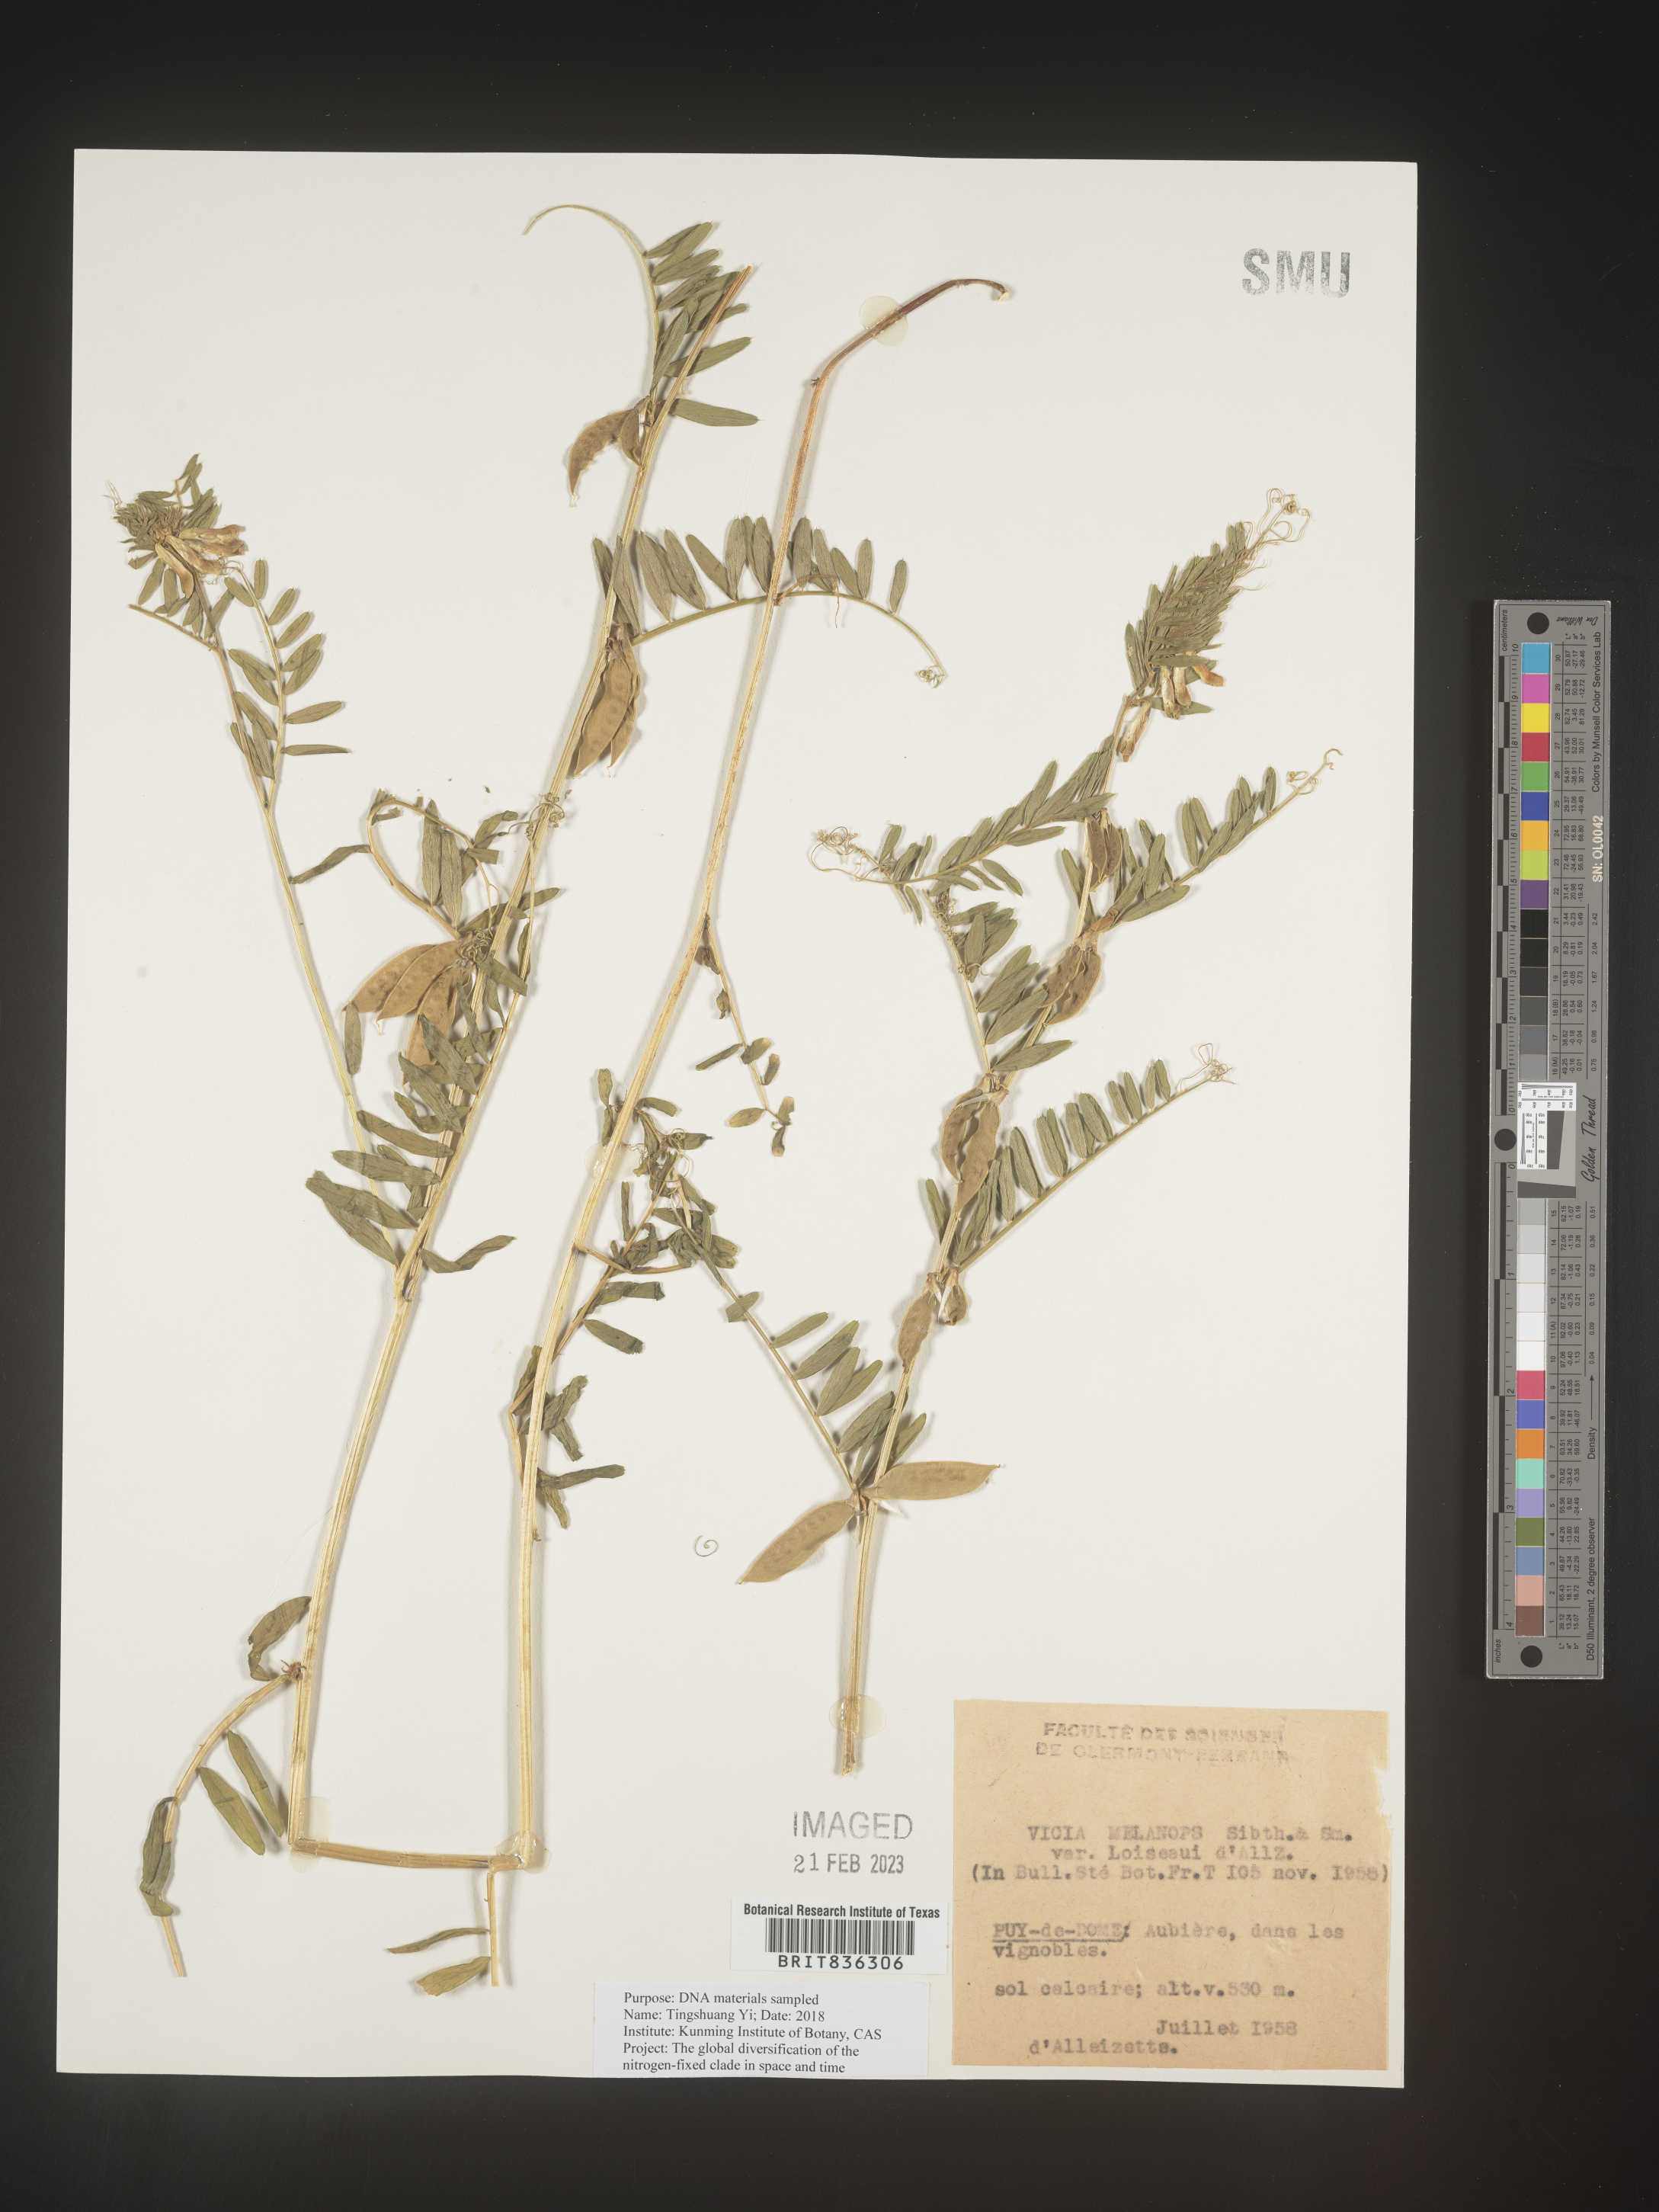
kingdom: Plantae
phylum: Tracheophyta
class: Magnoliopsida
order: Fabales
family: Fabaceae
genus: Vicia
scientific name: Vicia
